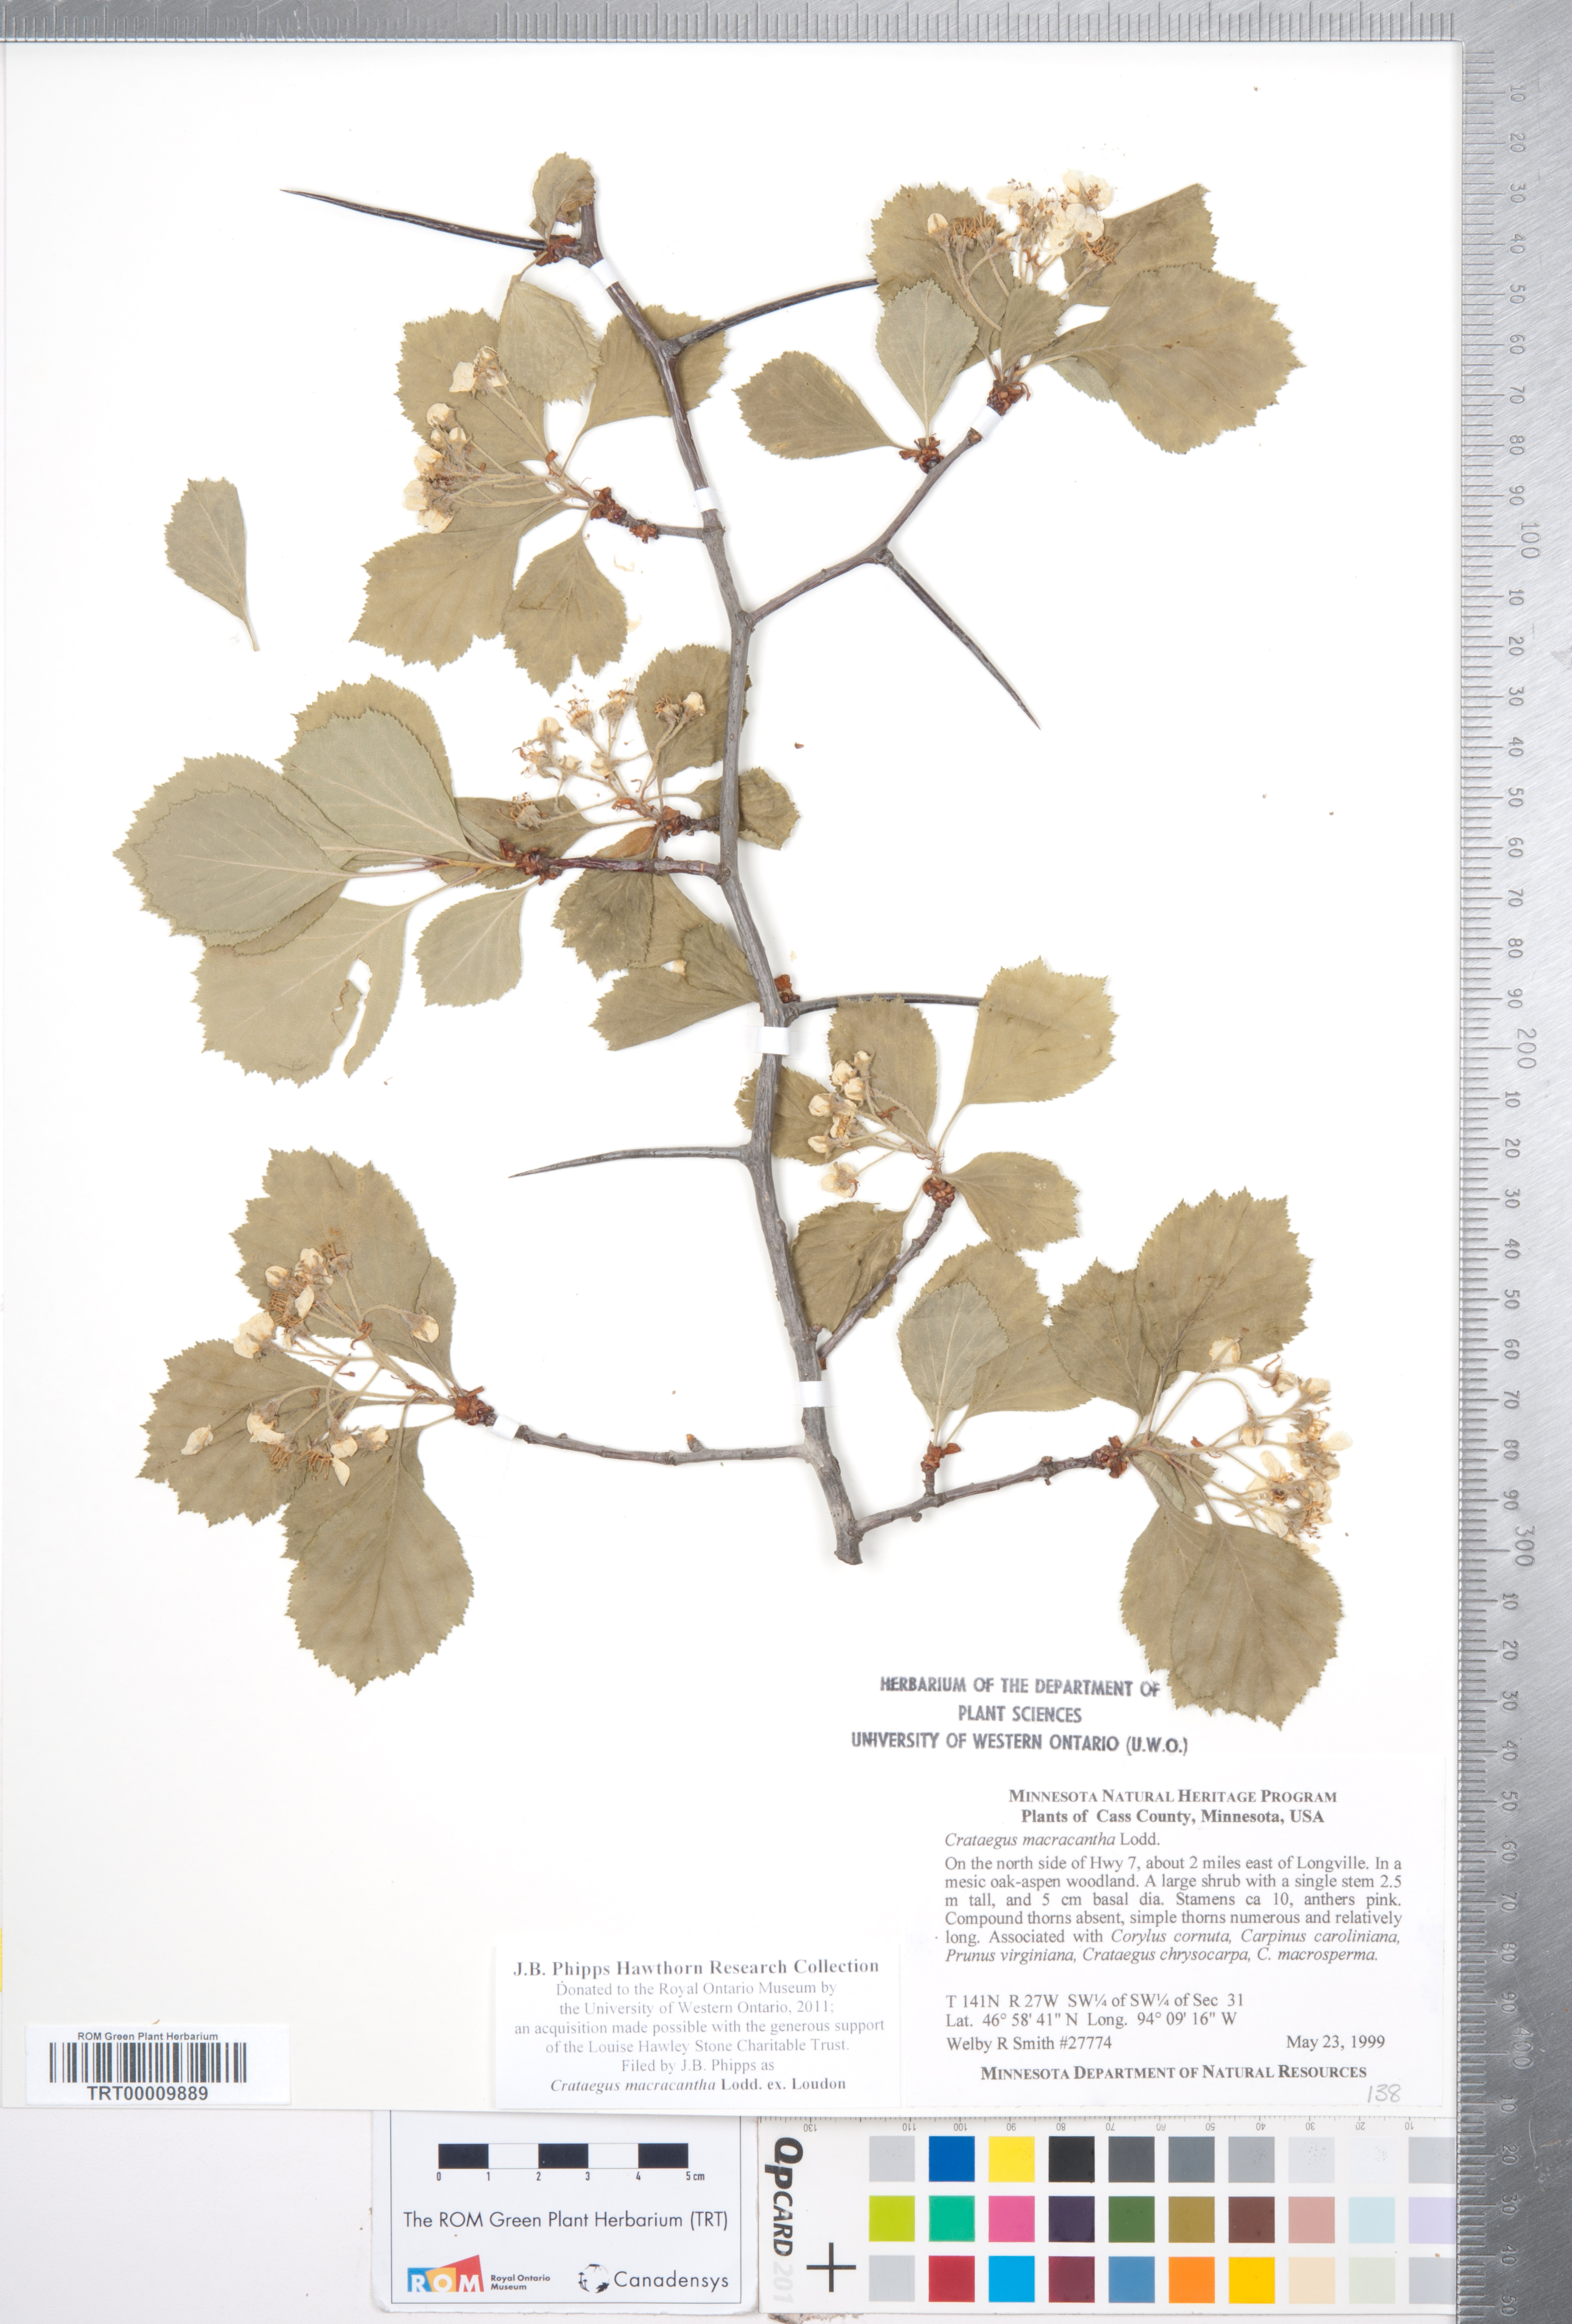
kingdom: Plantae
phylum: Tracheophyta
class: Magnoliopsida
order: Rosales
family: Rosaceae
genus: Crataegus
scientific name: Crataegus macracantha
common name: Large-thorn hawthorn
